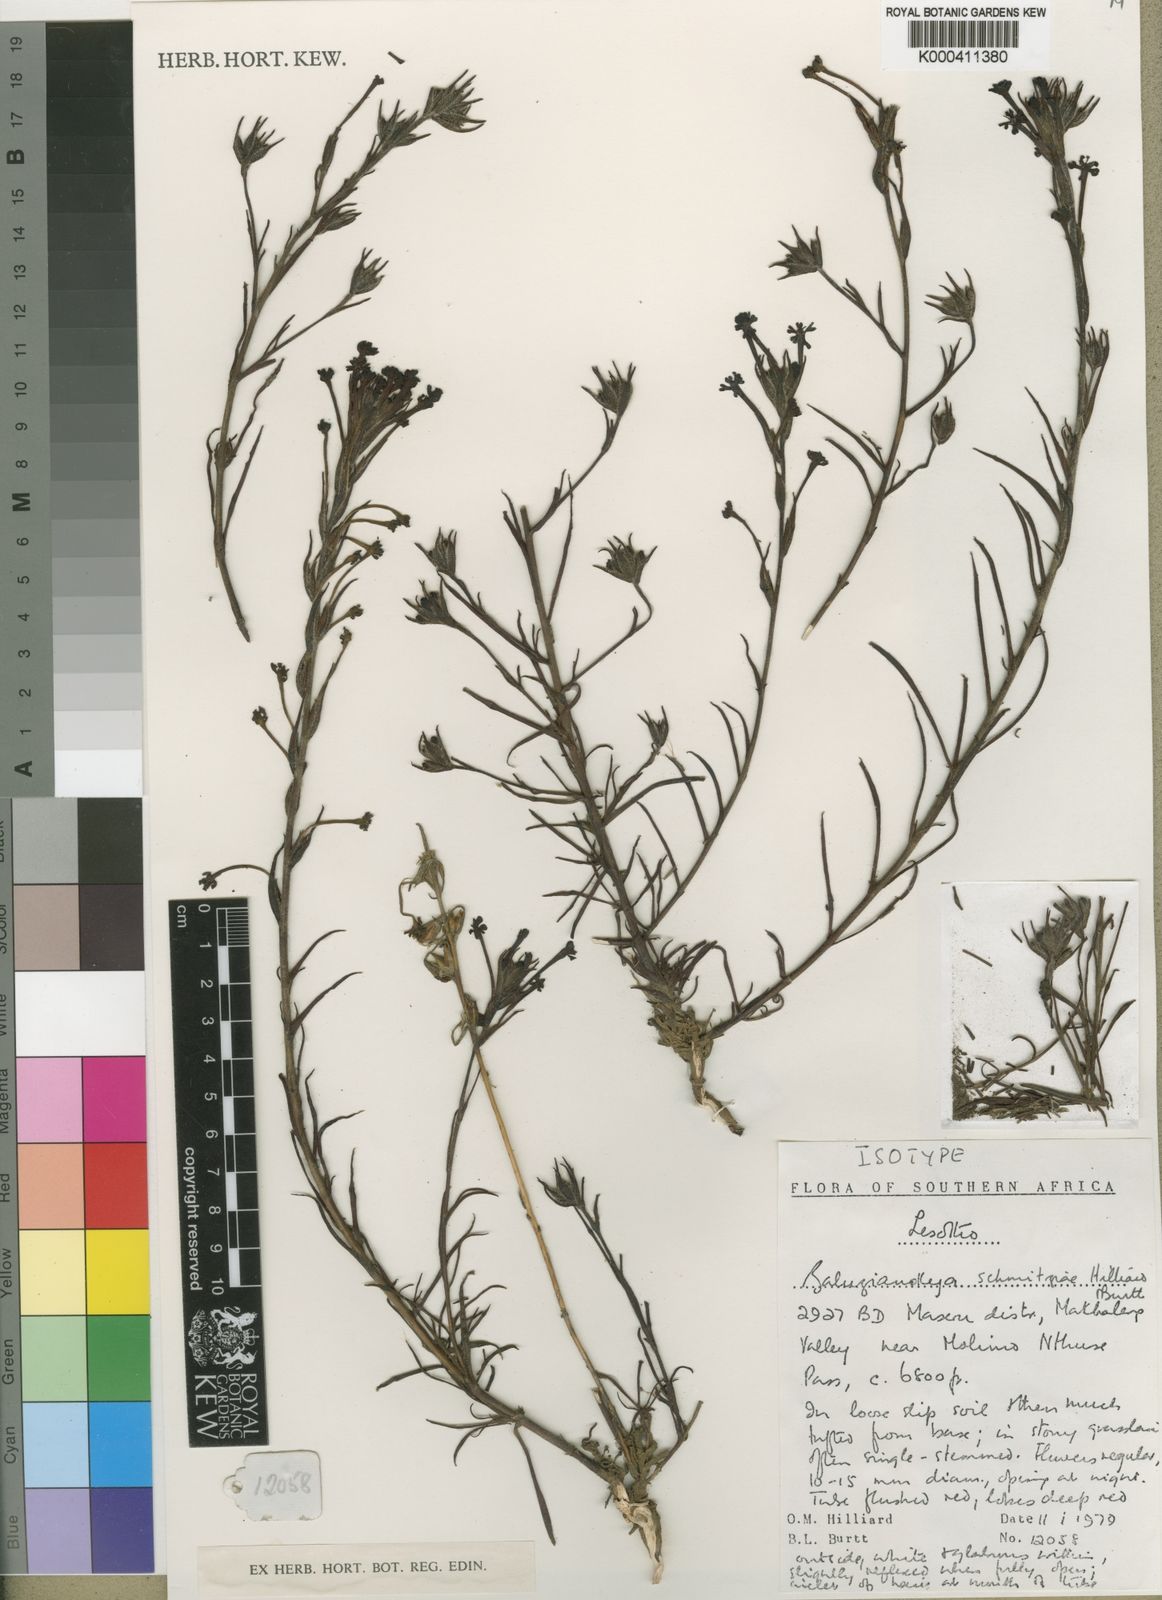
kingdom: Plantae
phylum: Tracheophyta
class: Magnoliopsida
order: Lamiales
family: Scrophulariaceae
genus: Zaluzianskya
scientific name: Zaluzianskya schmitziae
